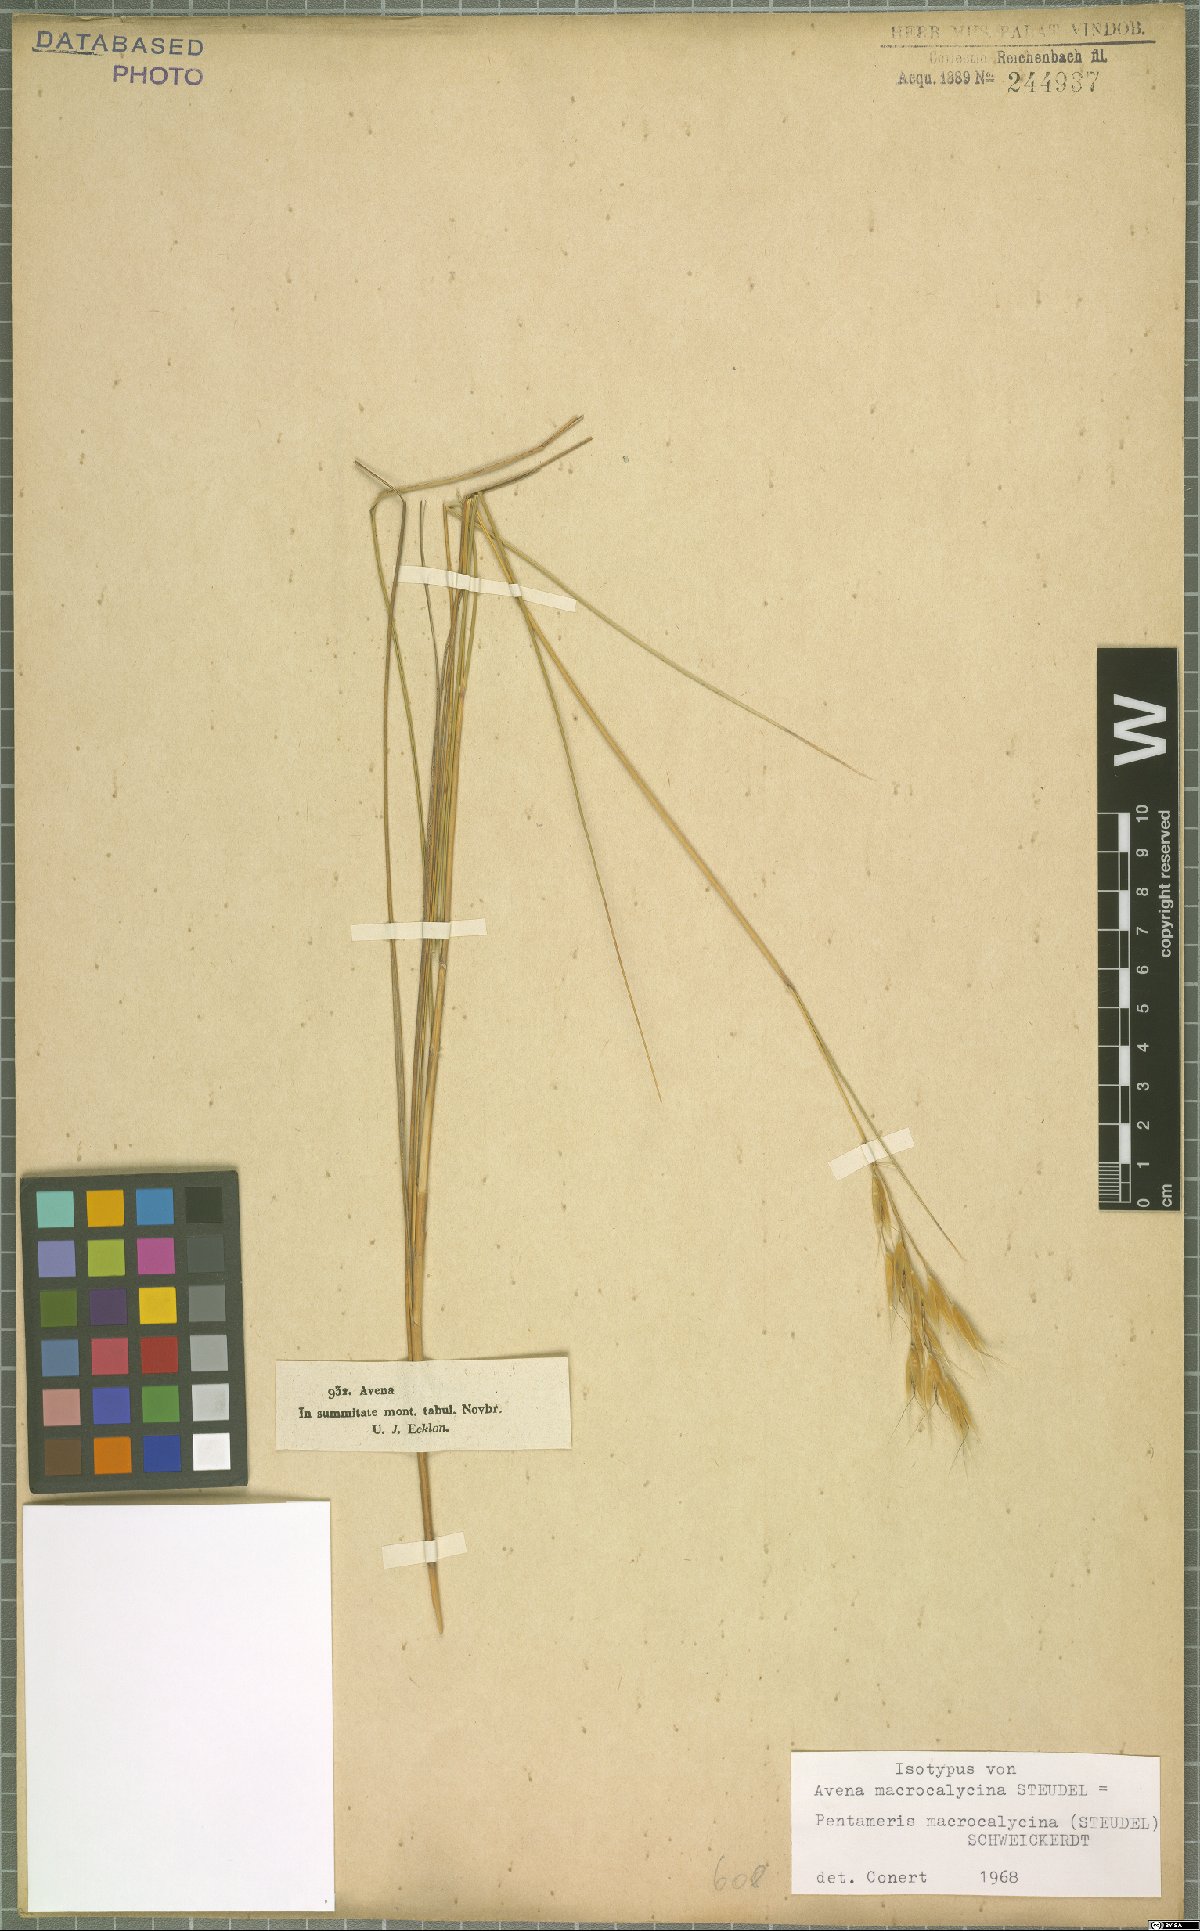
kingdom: Plantae
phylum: Tracheophyta
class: Liliopsida
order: Poales
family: Poaceae
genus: Pentameris
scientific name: Pentameris macrocalycina
